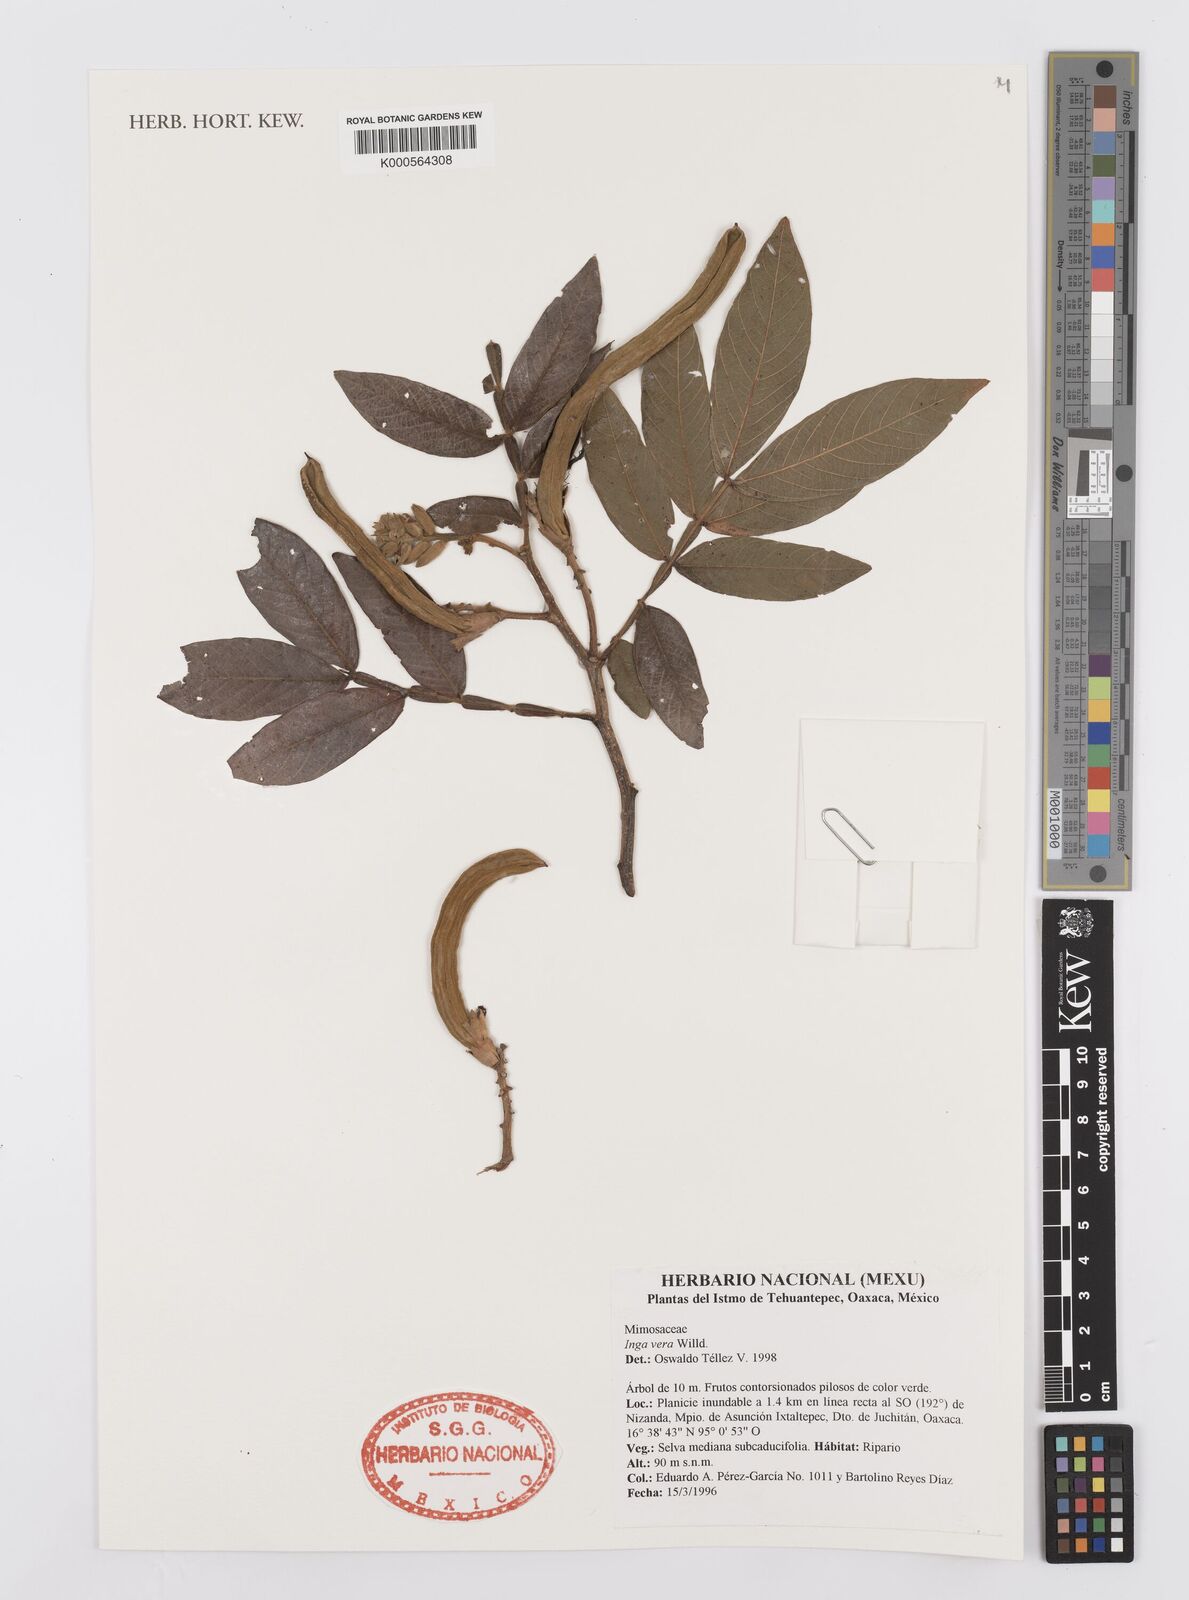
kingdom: Plantae
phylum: Tracheophyta
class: Magnoliopsida
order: Fabales
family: Fabaceae
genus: Inga
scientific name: Inga vera
